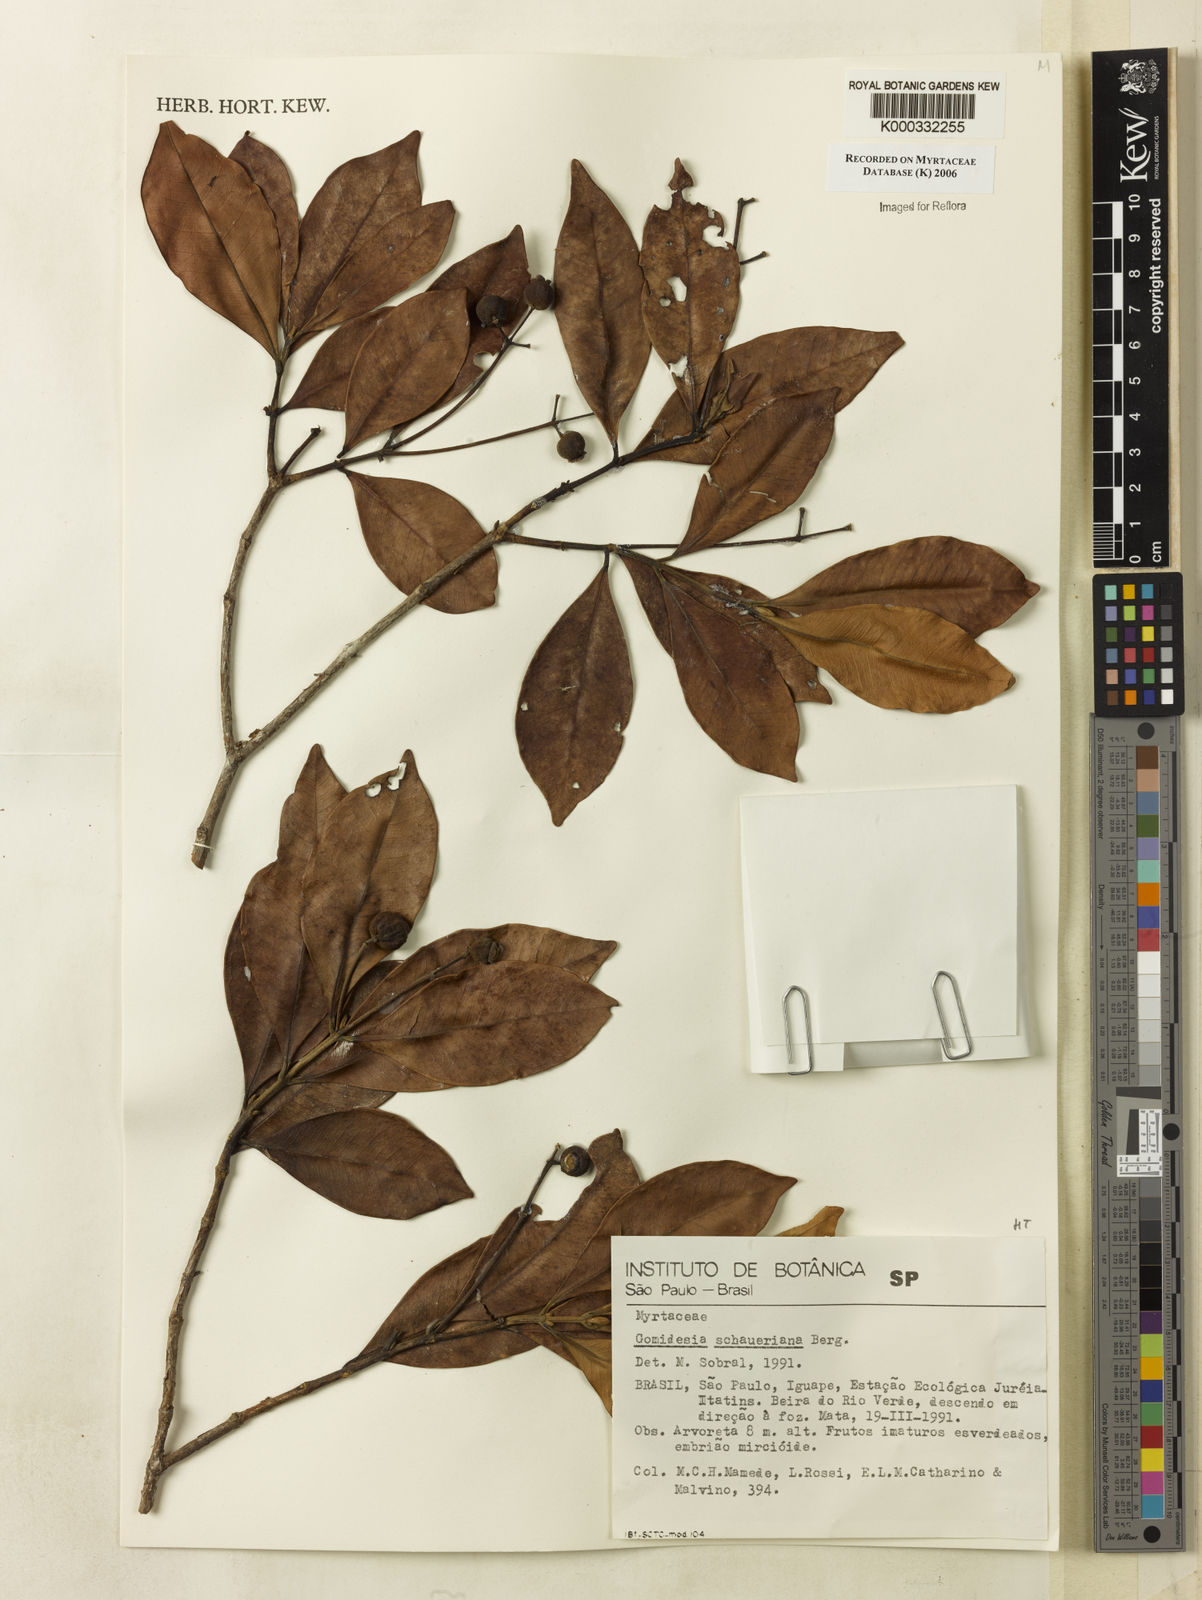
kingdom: Plantae
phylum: Tracheophyta
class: Magnoliopsida
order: Myrtales
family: Myrtaceae
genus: Myrcia
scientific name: Myrcia freyreissiana
